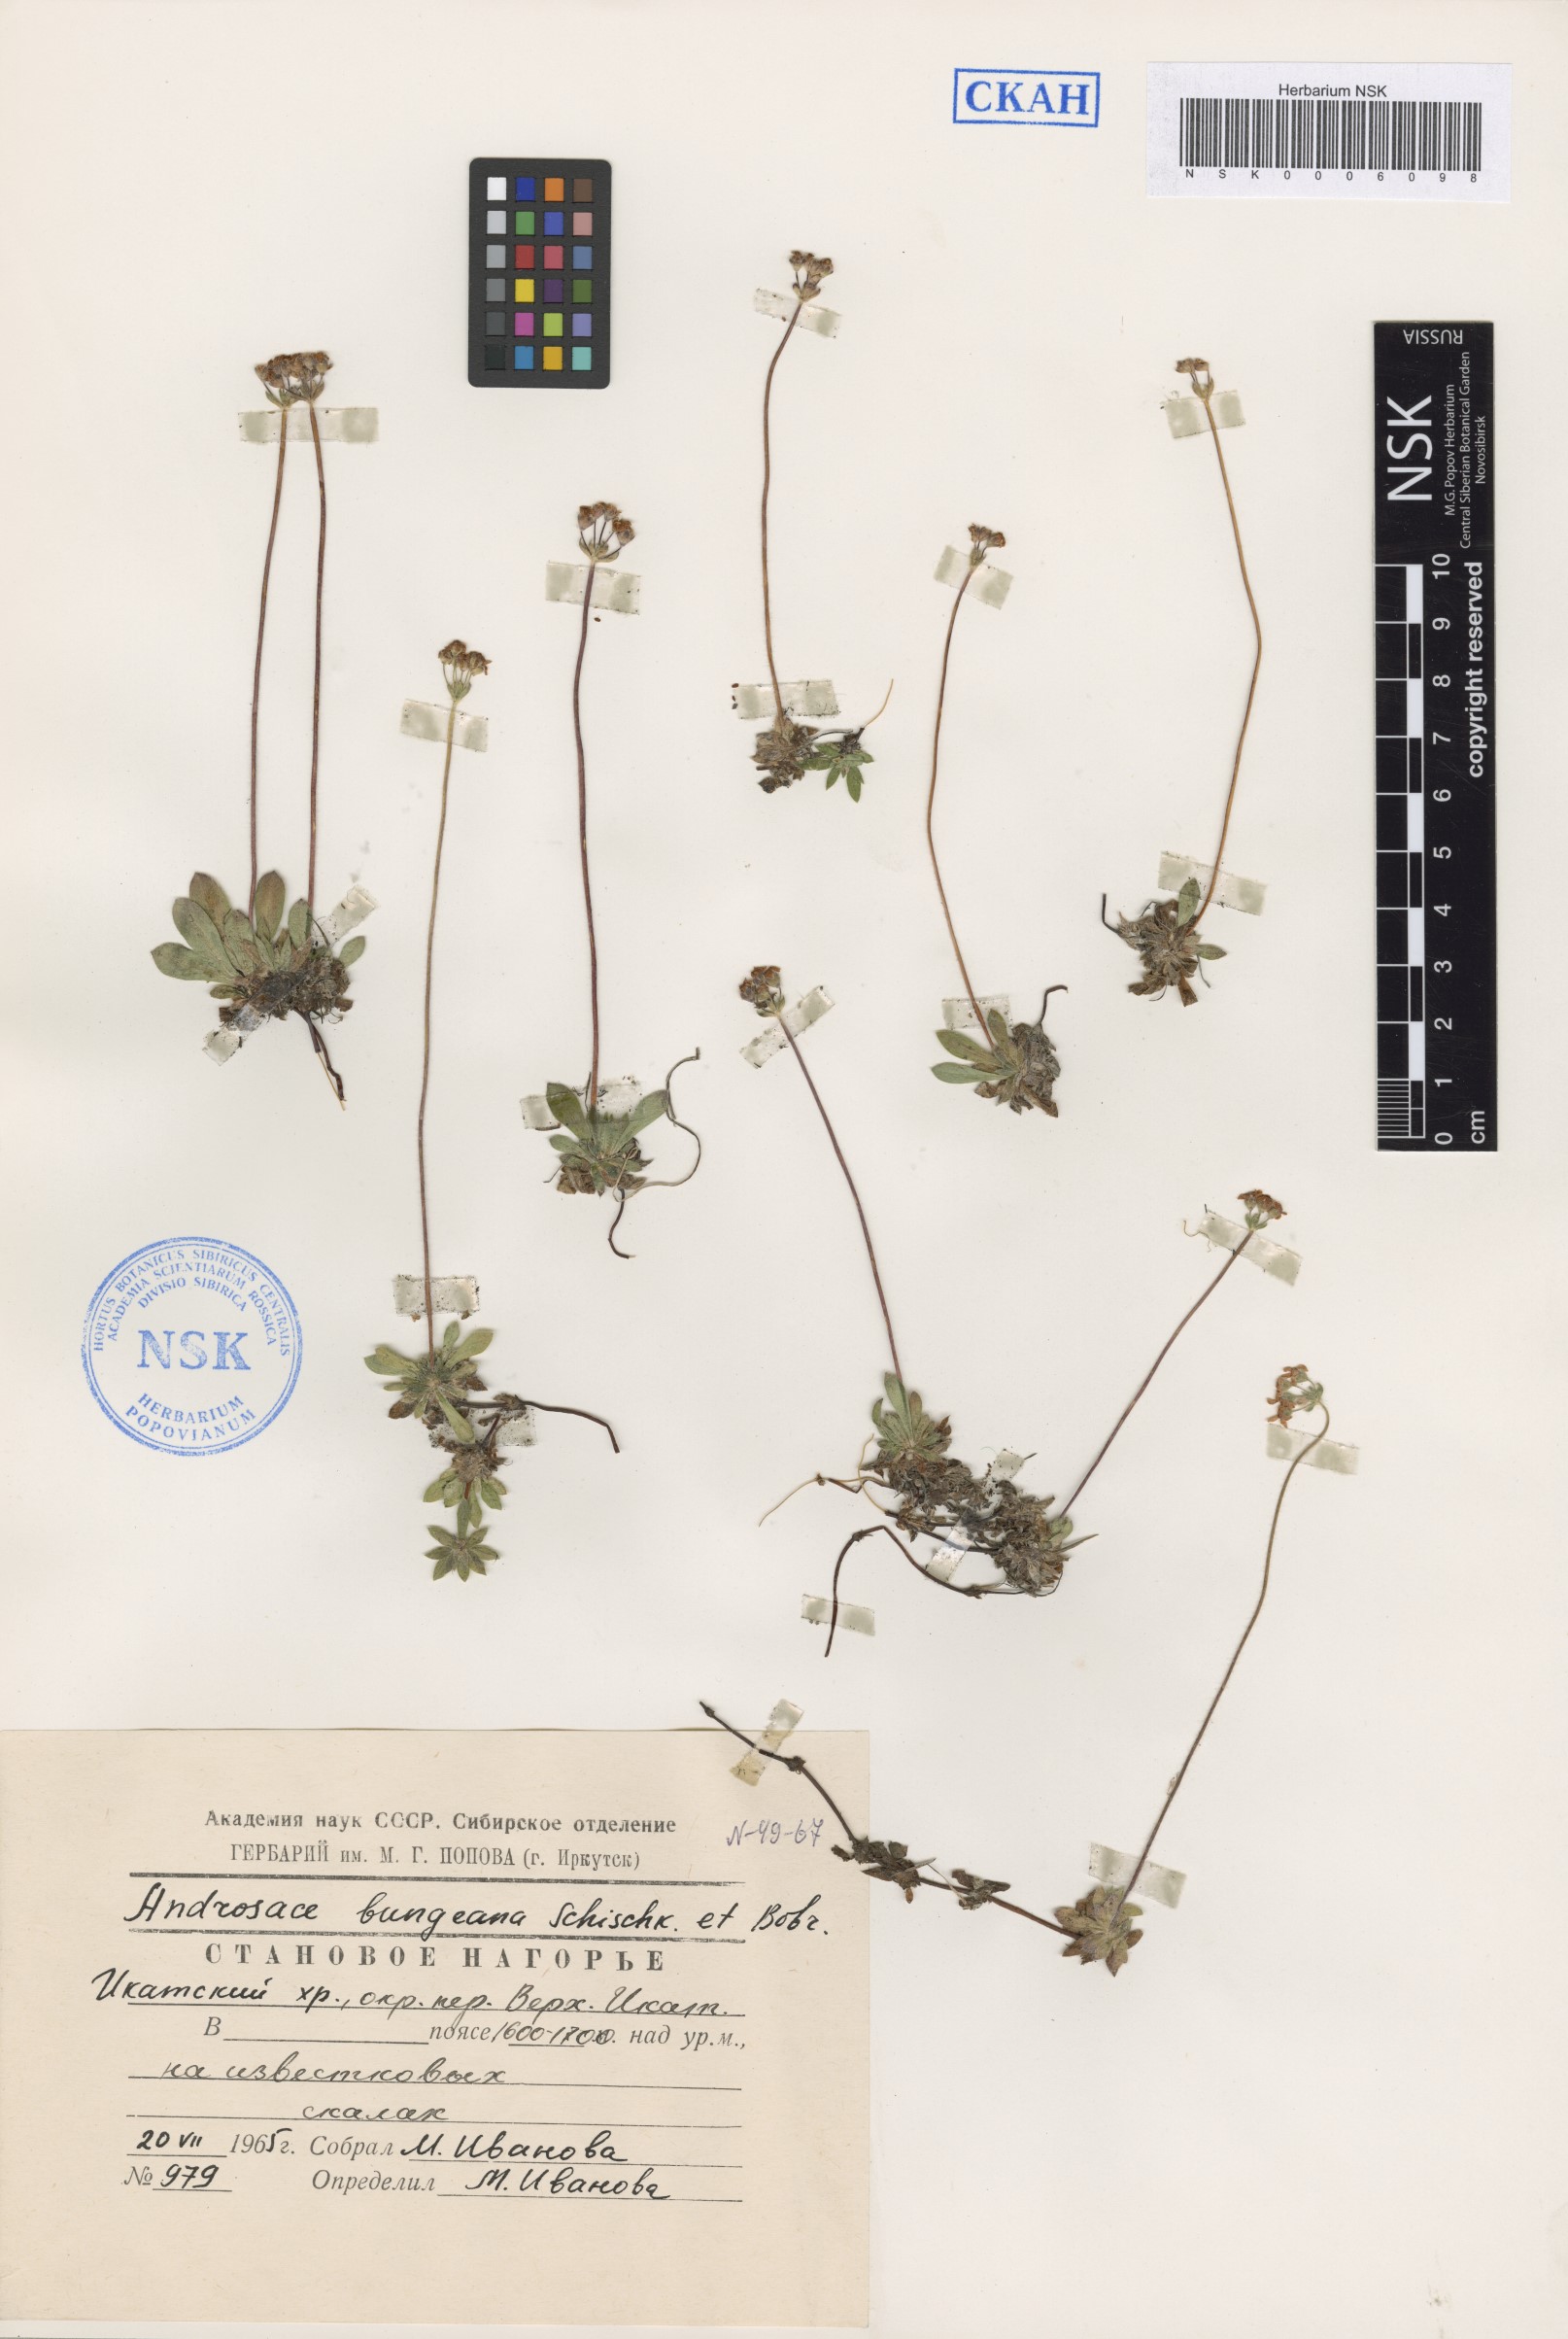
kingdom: Plantae
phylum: Tracheophyta
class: Magnoliopsida
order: Ericales
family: Primulaceae
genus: Androsace
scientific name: Androsace bungeana
